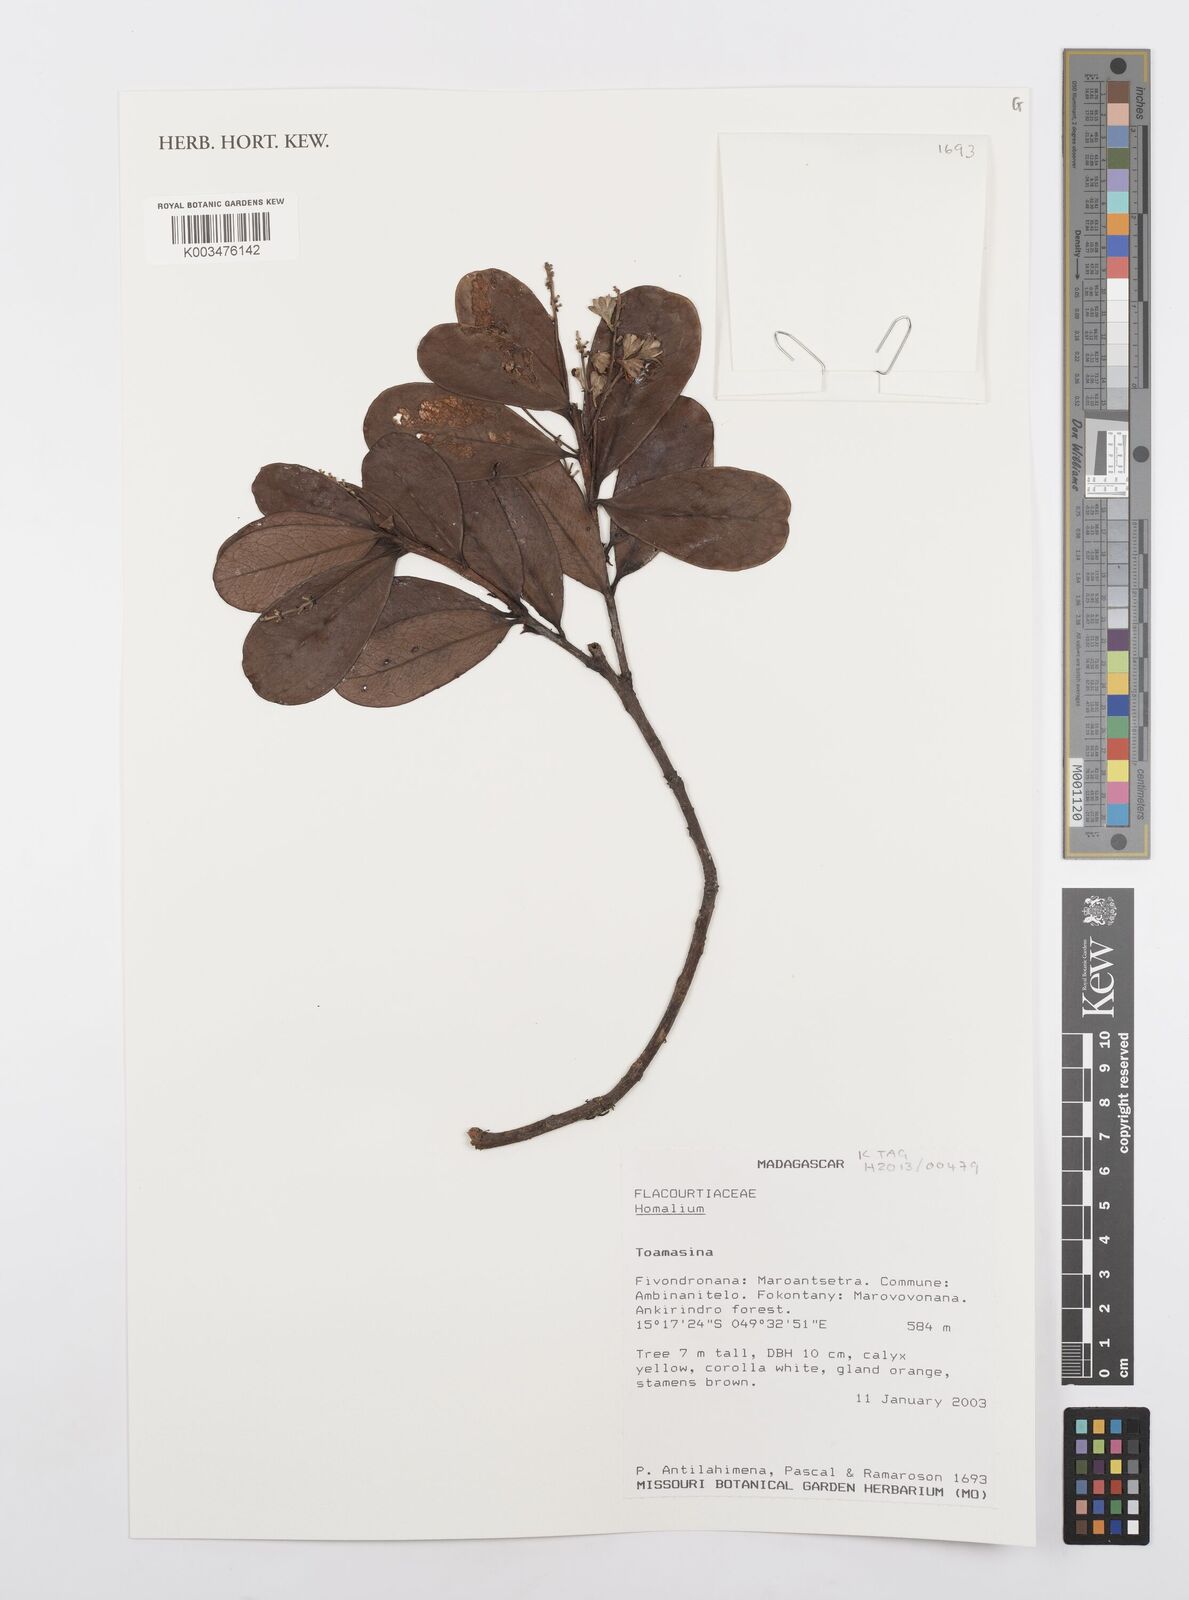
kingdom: Plantae
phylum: Tracheophyta
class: Magnoliopsida
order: Malpighiales
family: Salicaceae
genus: Homalium
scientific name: Homalium
